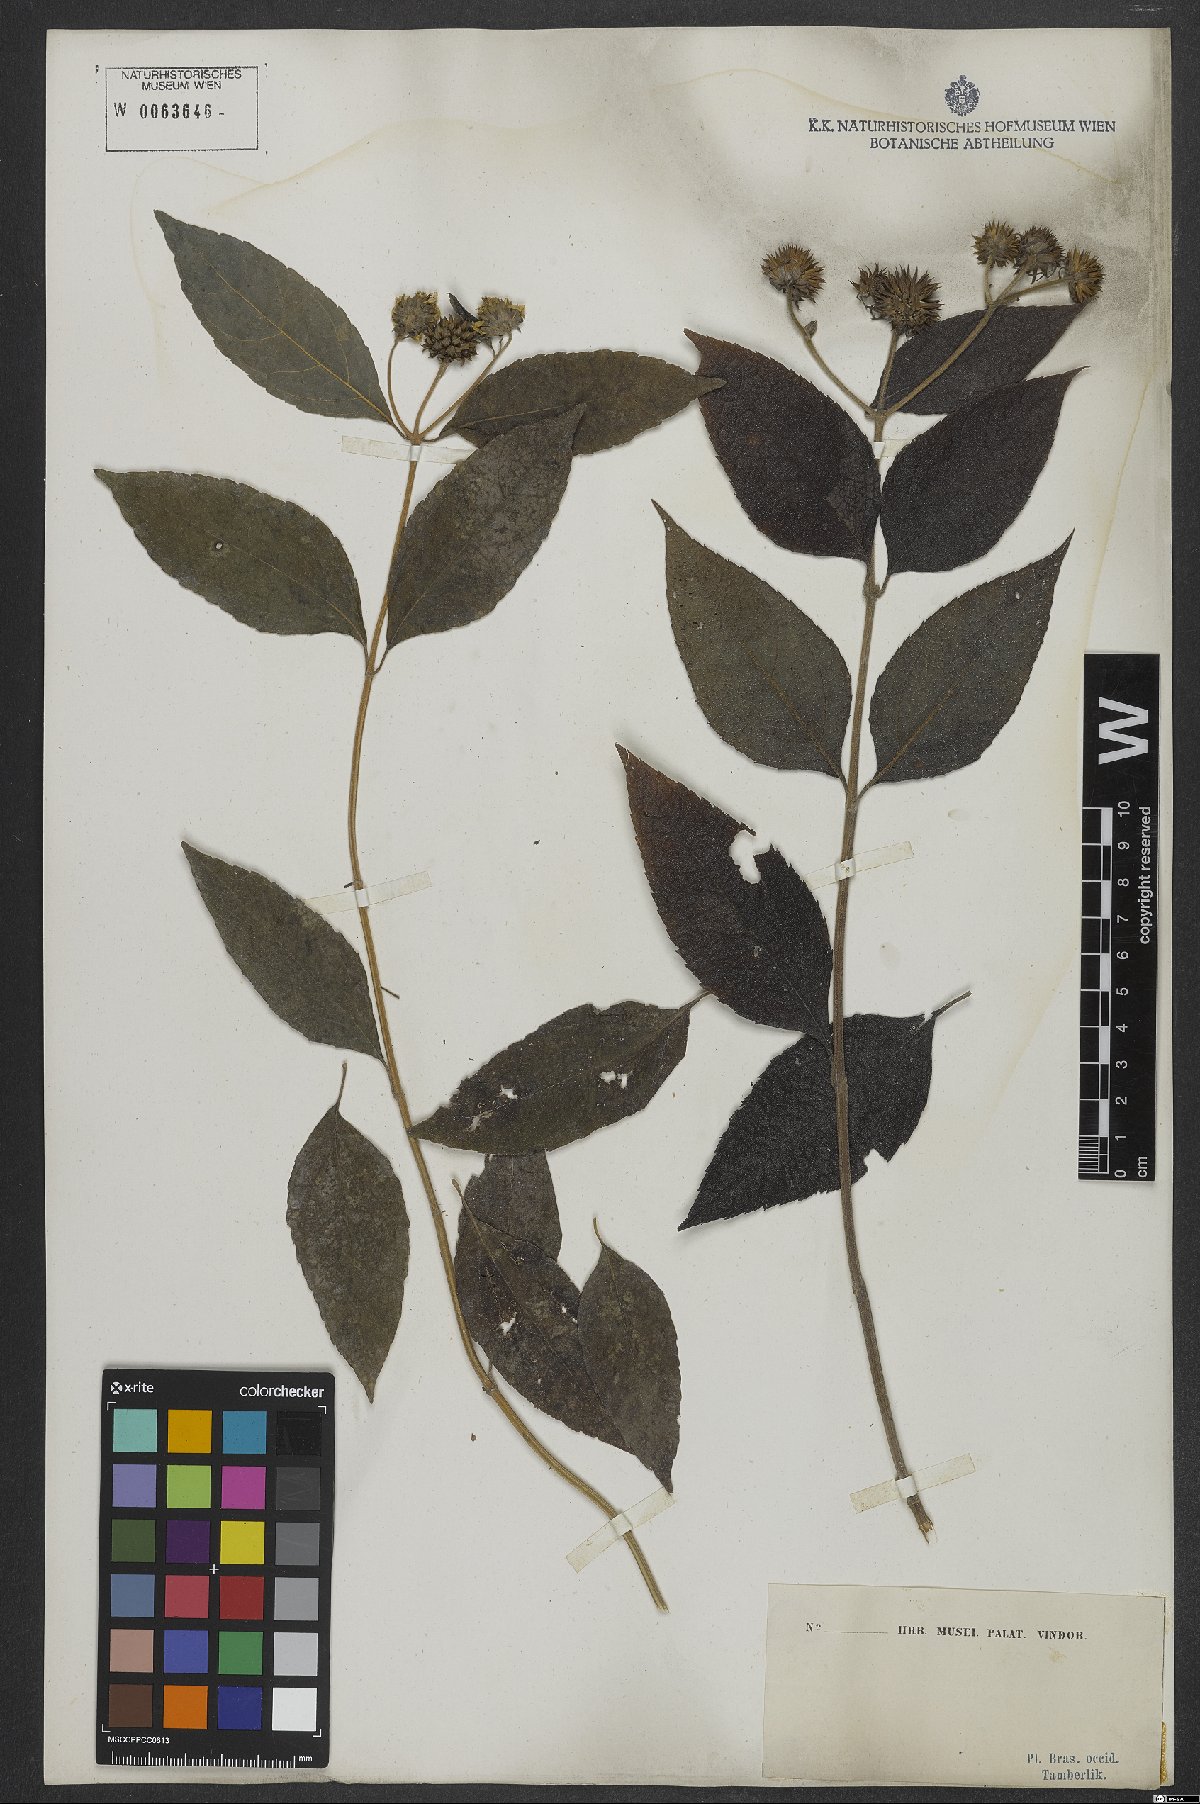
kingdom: Plantae
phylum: Tracheophyta
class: Magnoliopsida
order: Asterales
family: Asteraceae
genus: Melanthera
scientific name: Melanthera
